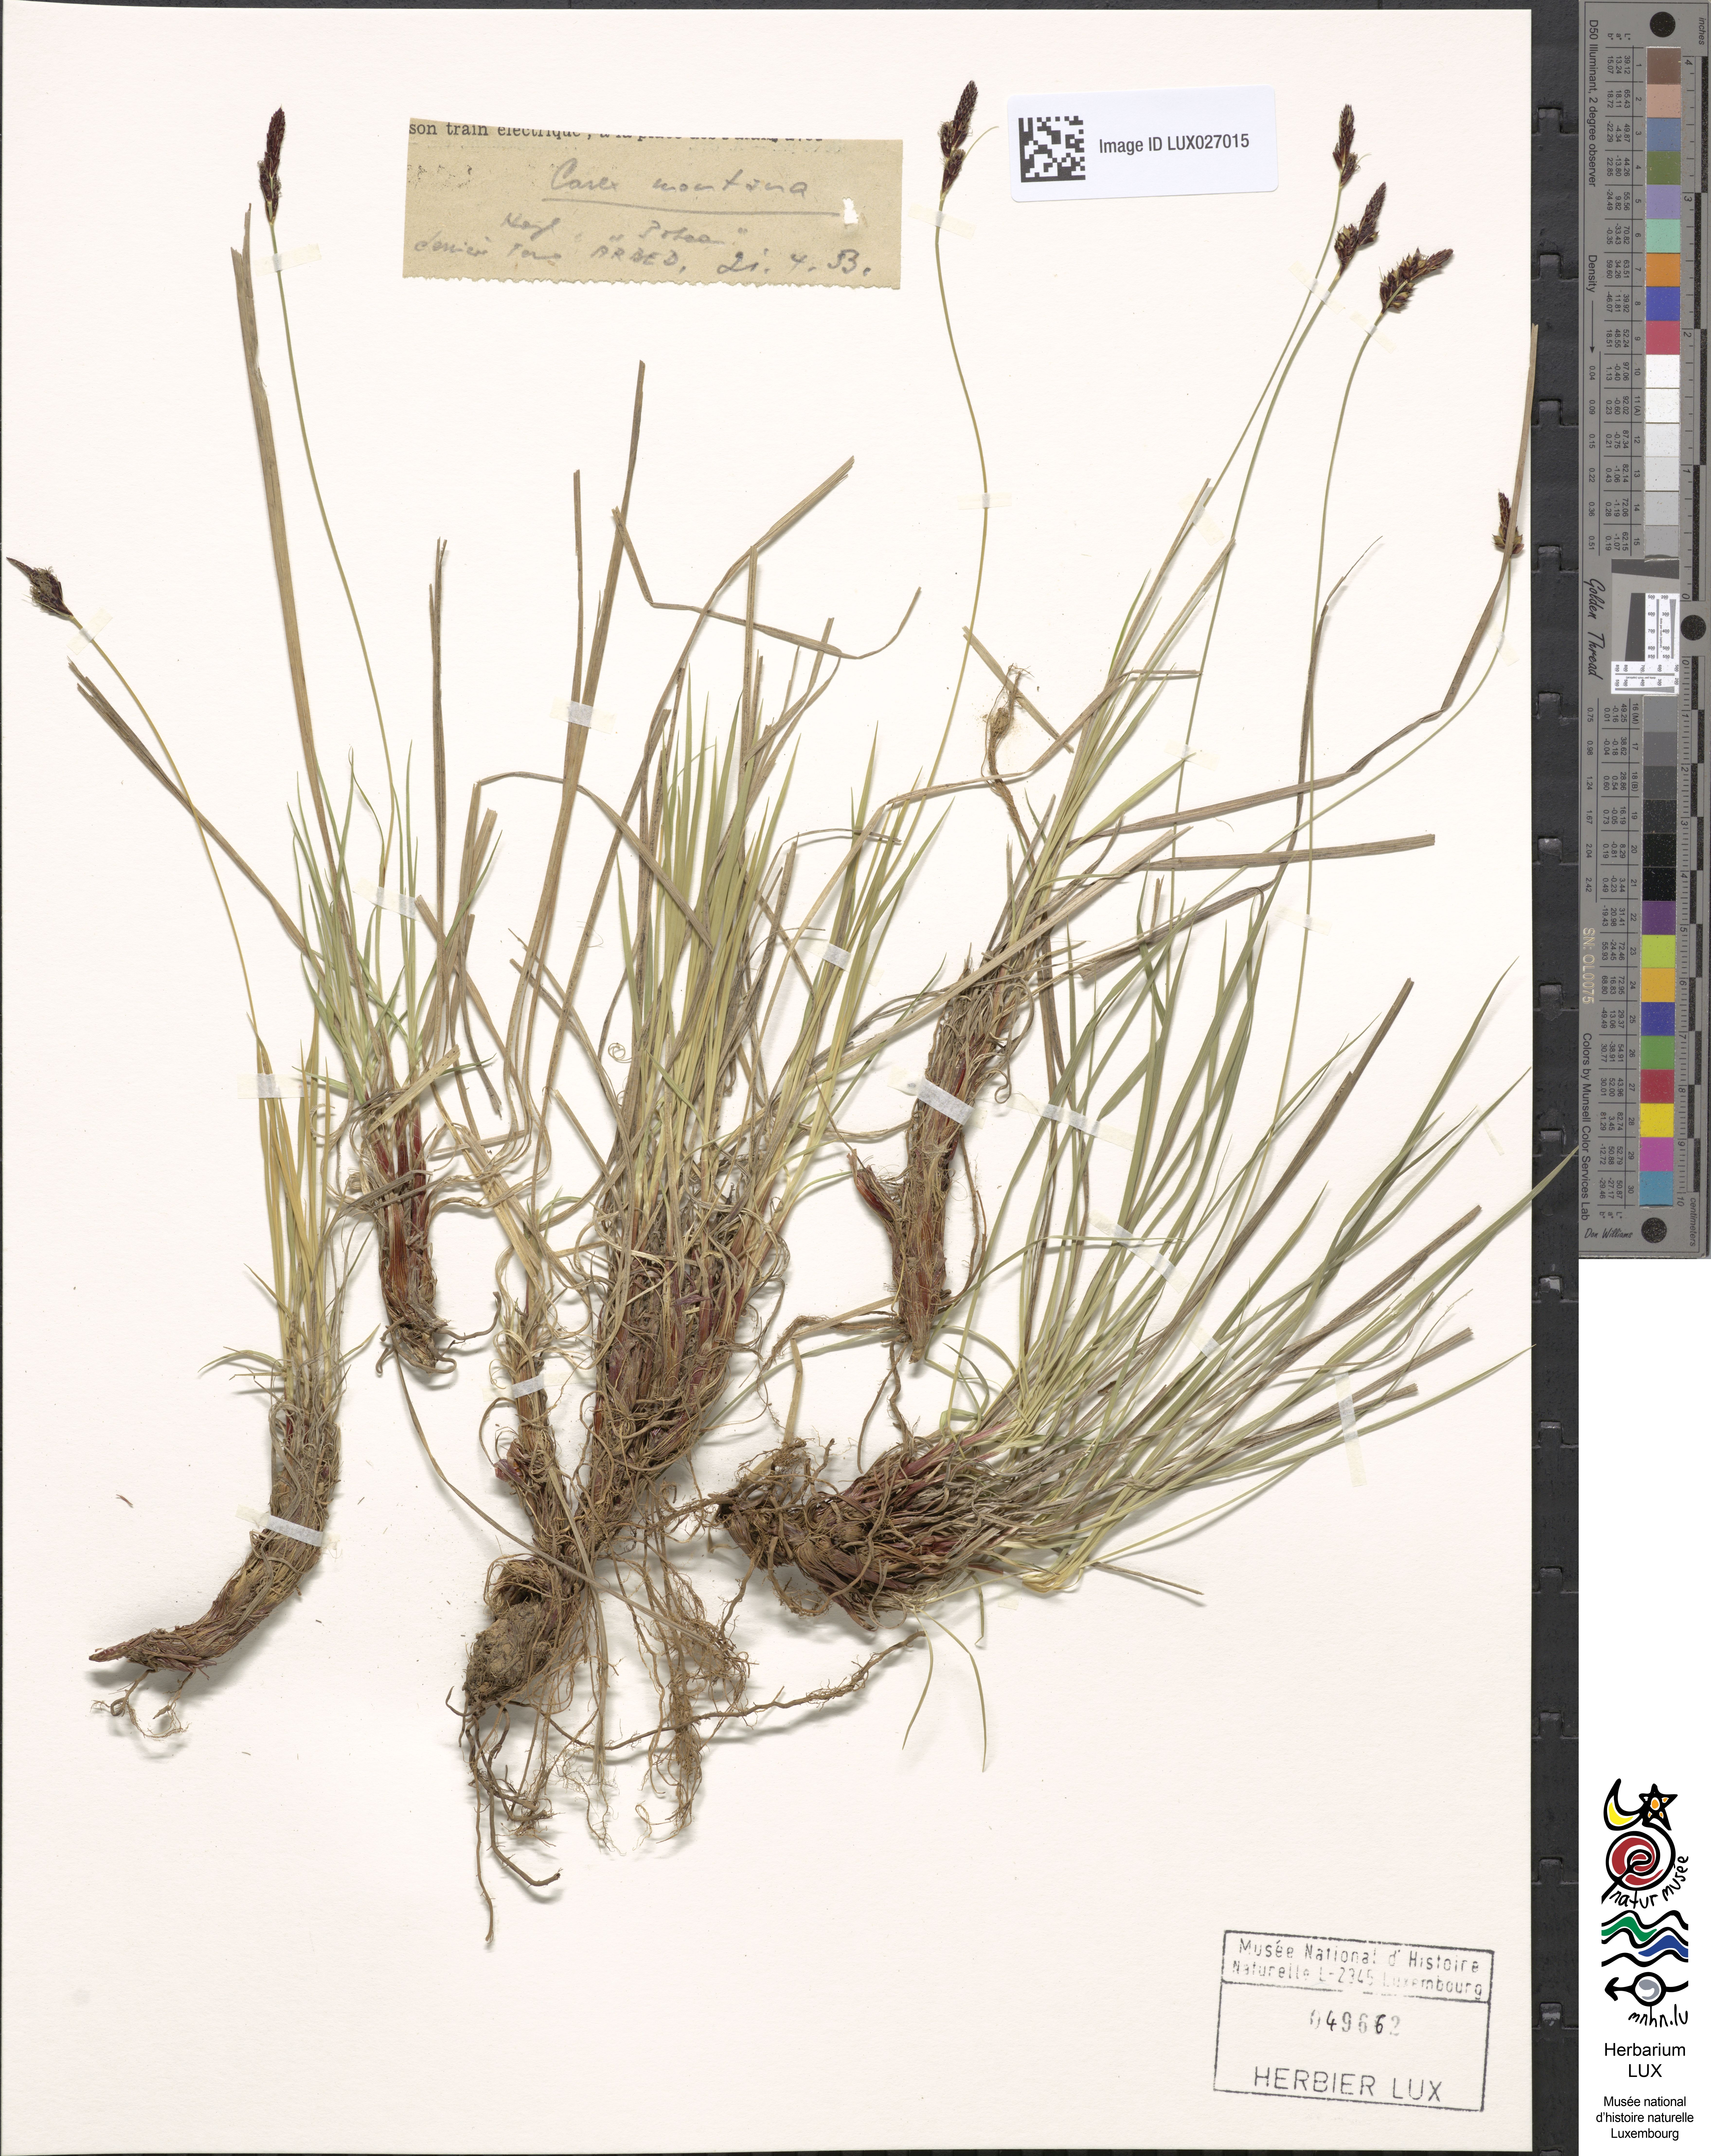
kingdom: Plantae
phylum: Tracheophyta
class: Liliopsida
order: Poales
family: Cyperaceae
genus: Carex
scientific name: Carex montana
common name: Soft-leaved sedge
